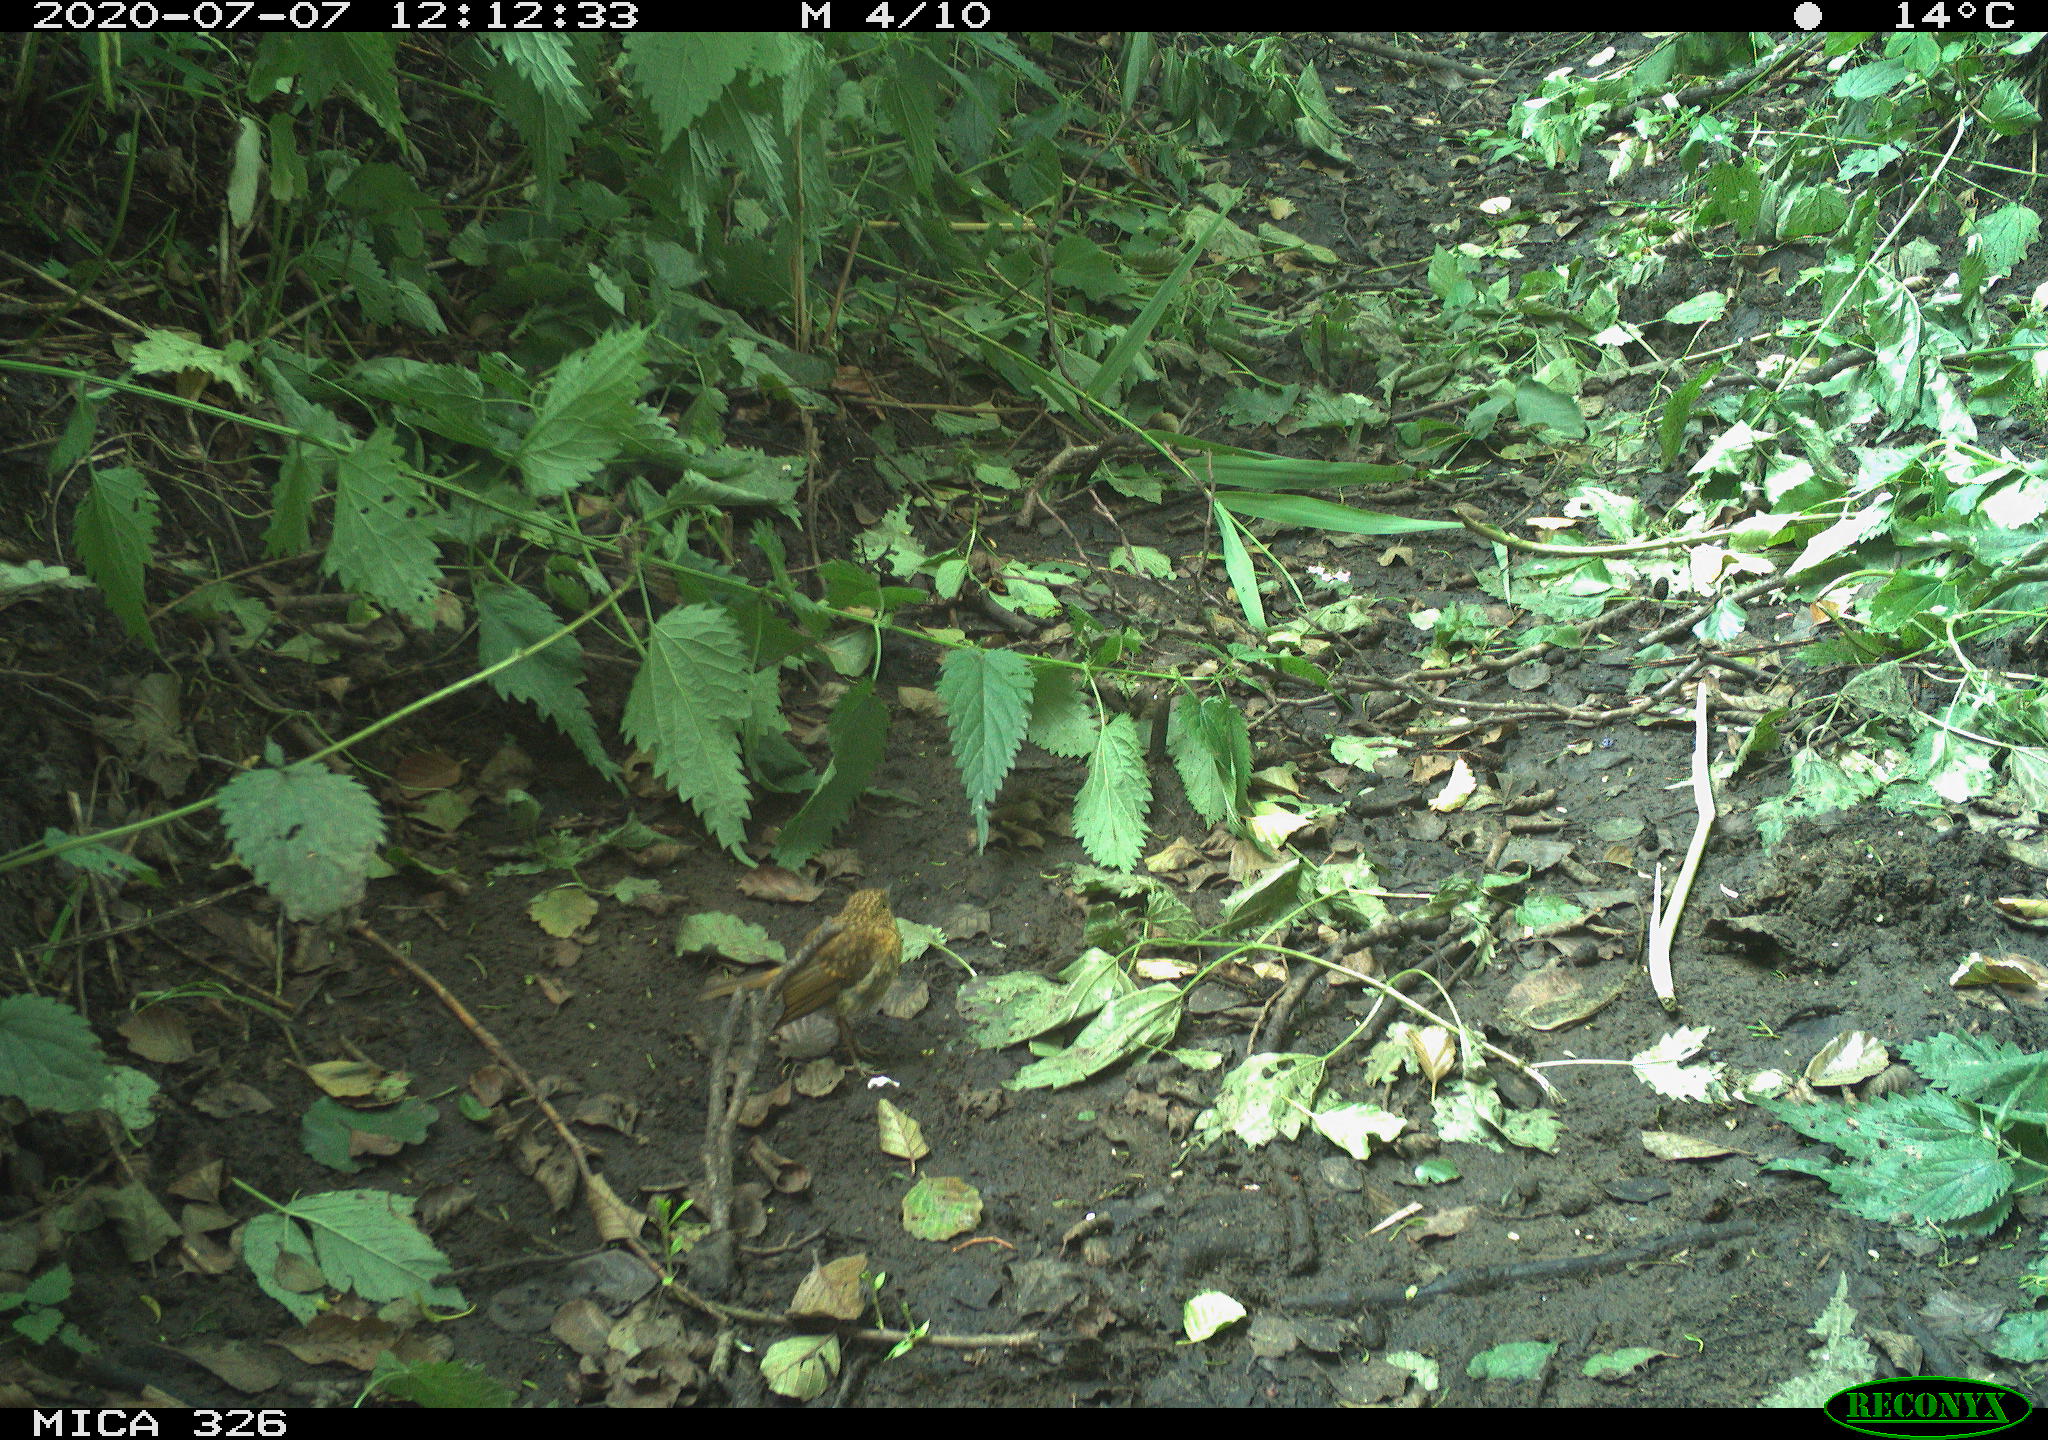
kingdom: Animalia
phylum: Chordata
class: Aves
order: Passeriformes
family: Muscicapidae
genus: Erithacus
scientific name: Erithacus rubecula
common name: European robin
